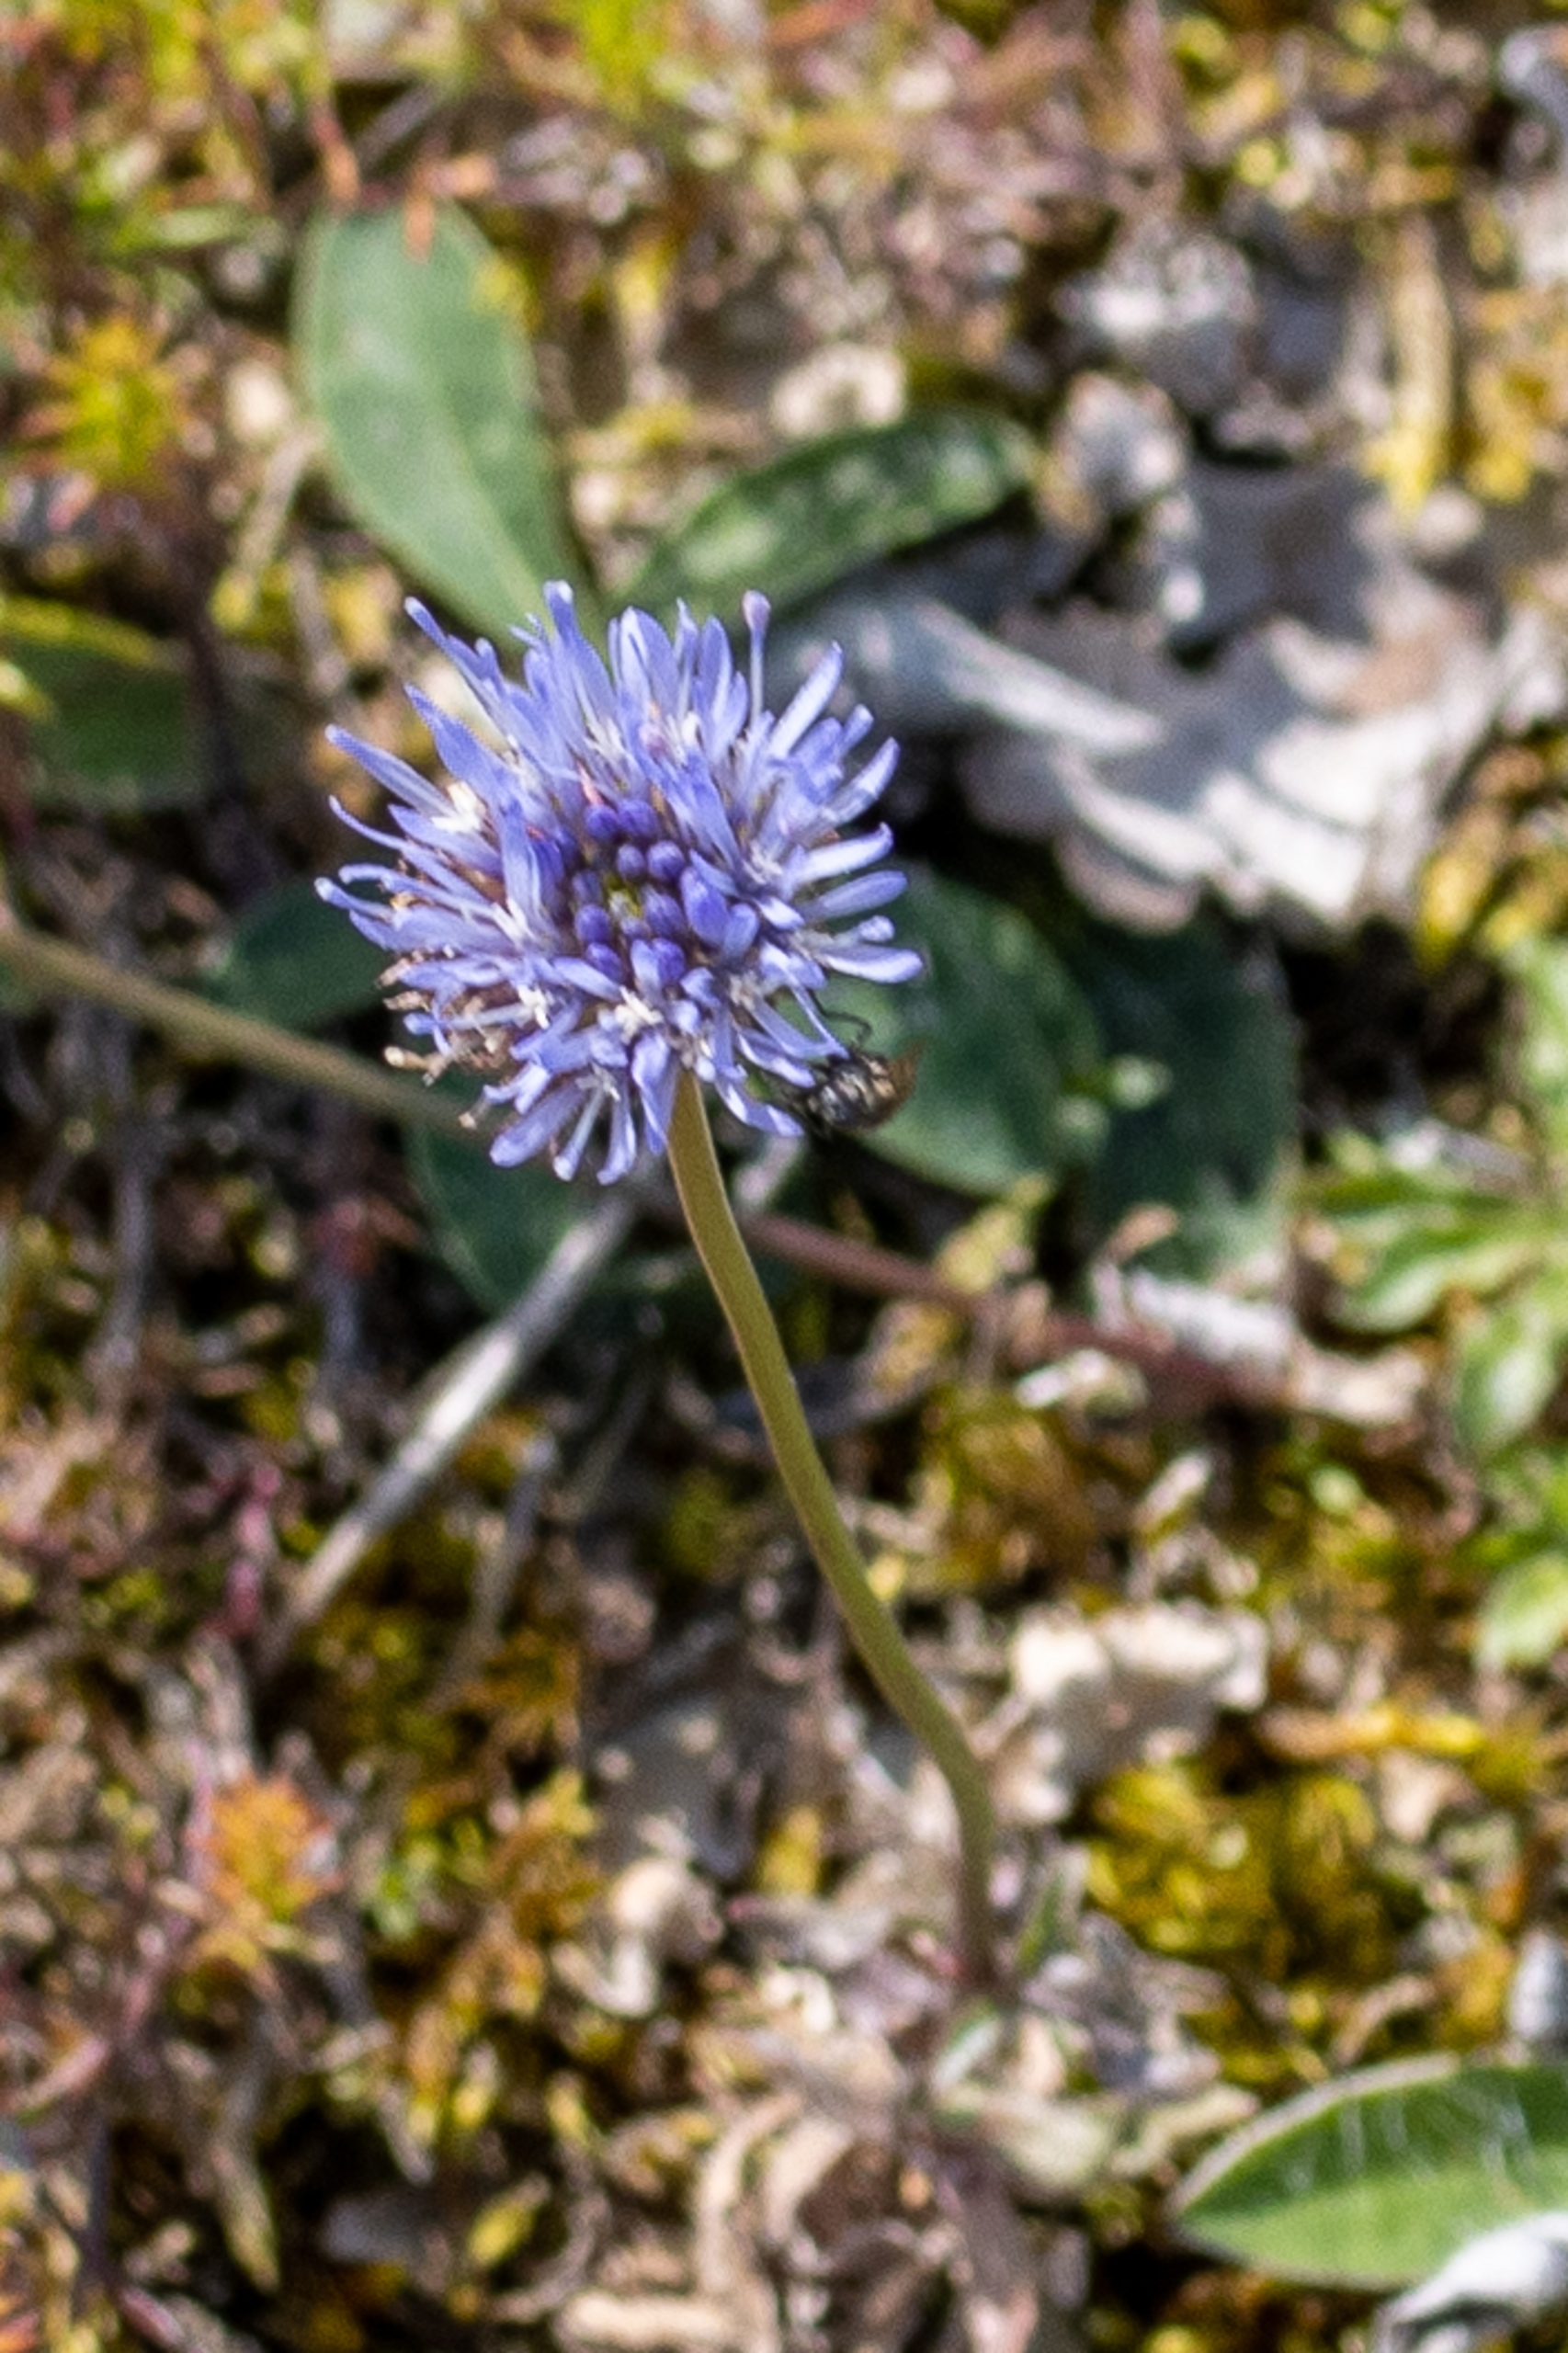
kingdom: Plantae
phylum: Tracheophyta
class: Magnoliopsida
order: Asterales
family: Campanulaceae
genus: Jasione
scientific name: Jasione montana
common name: Blåmunke
